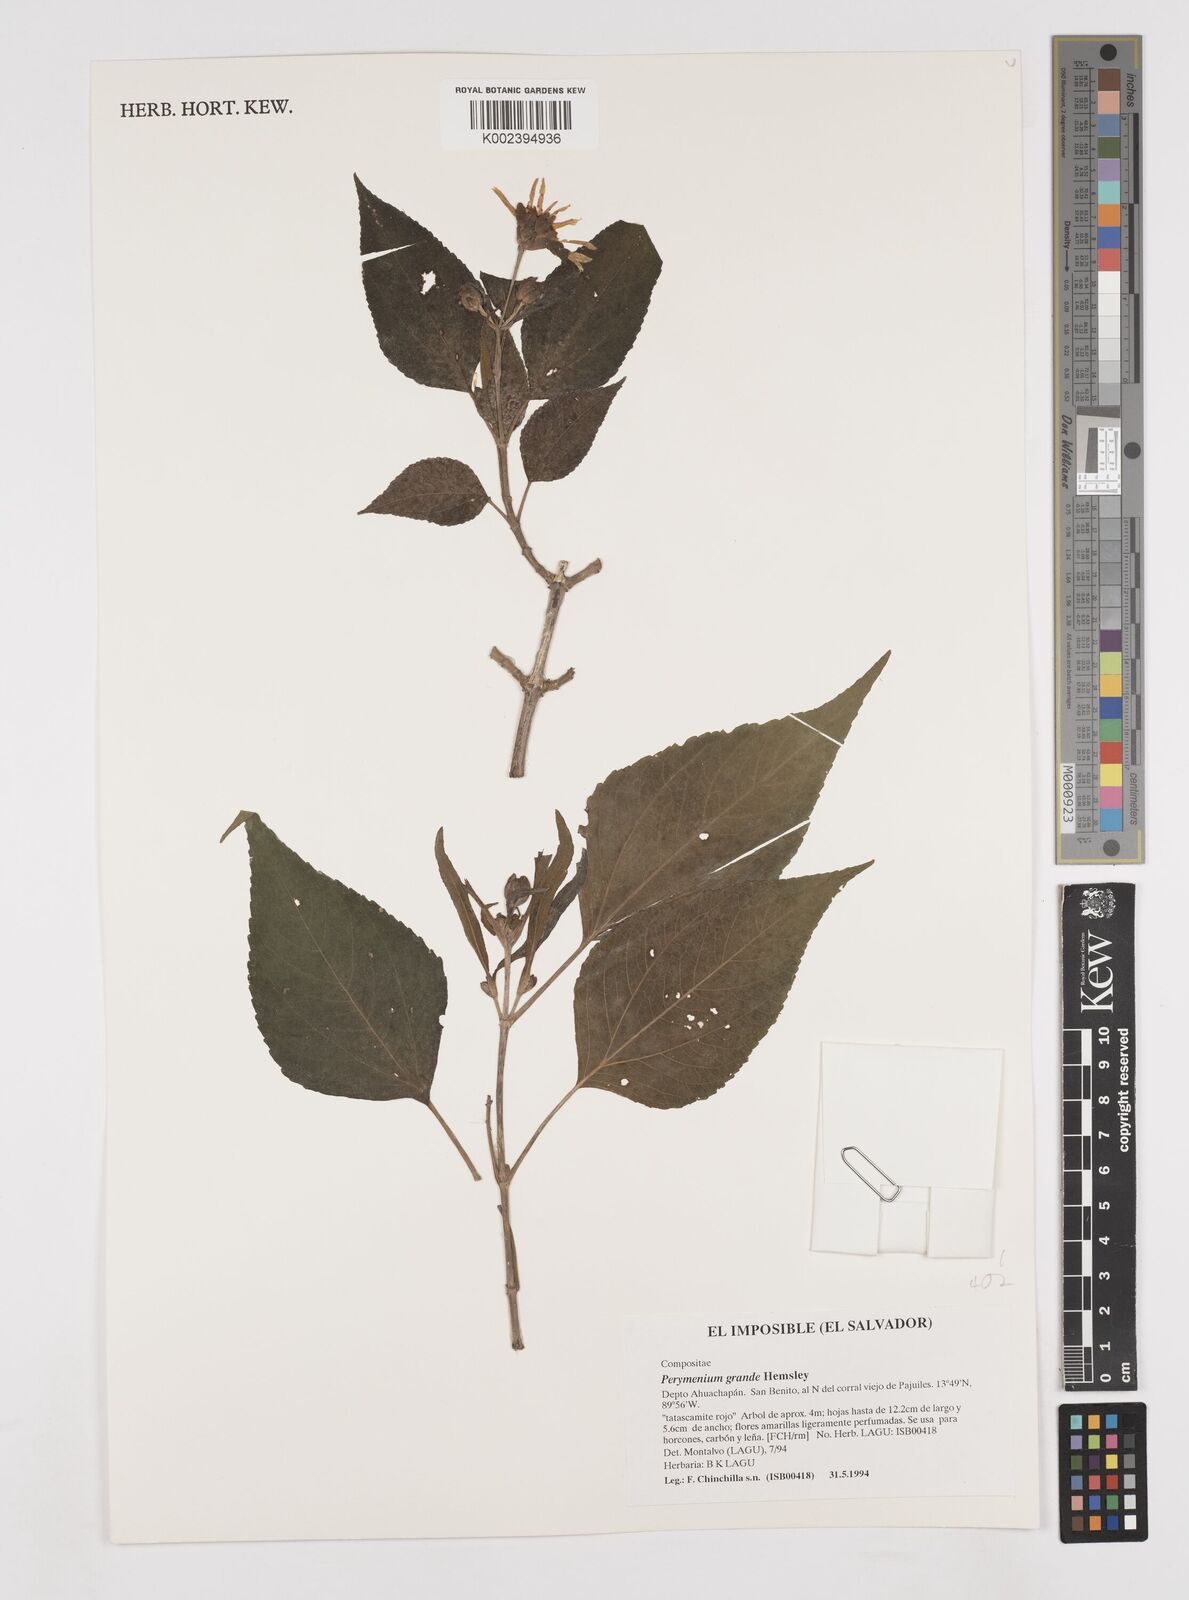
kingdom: Plantae
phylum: Tracheophyta
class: Magnoliopsida
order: Asterales
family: Asteraceae
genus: Perymenium
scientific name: Perymenium grande
